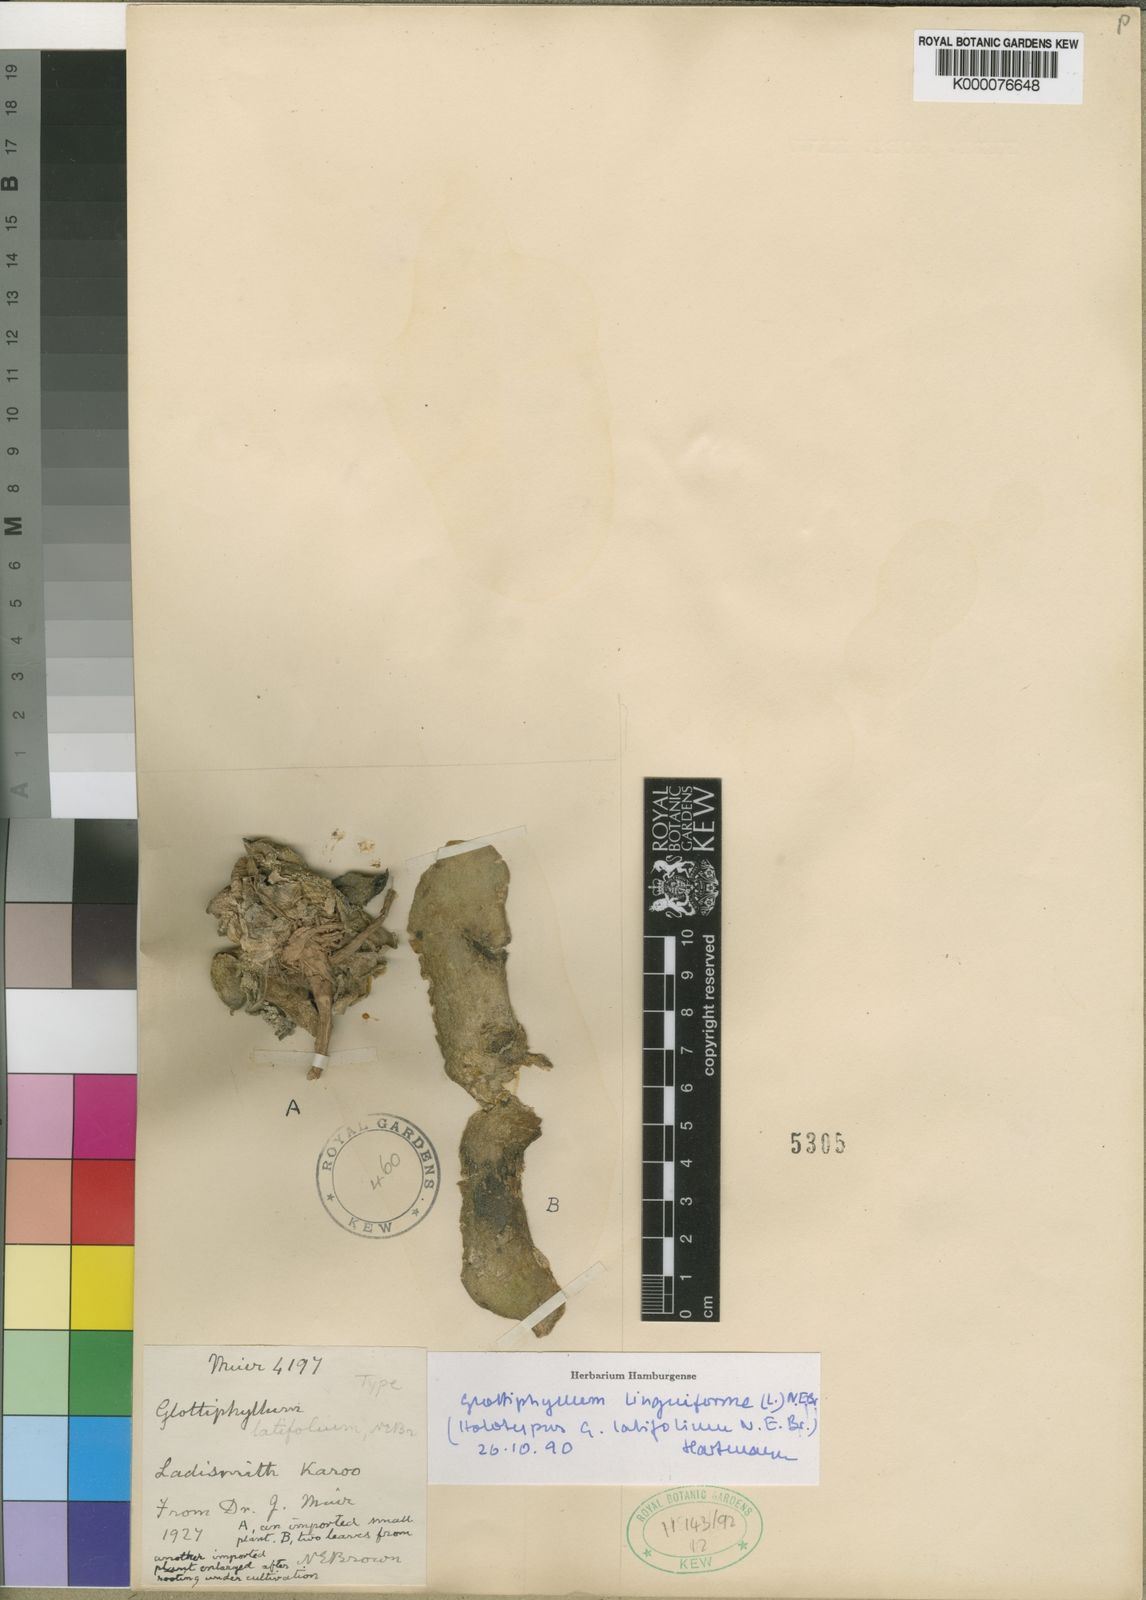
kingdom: Plantae
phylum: Tracheophyta
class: Magnoliopsida
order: Caryophyllales
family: Aizoaceae
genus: Glottiphyllum
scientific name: Glottiphyllum linguiforme
